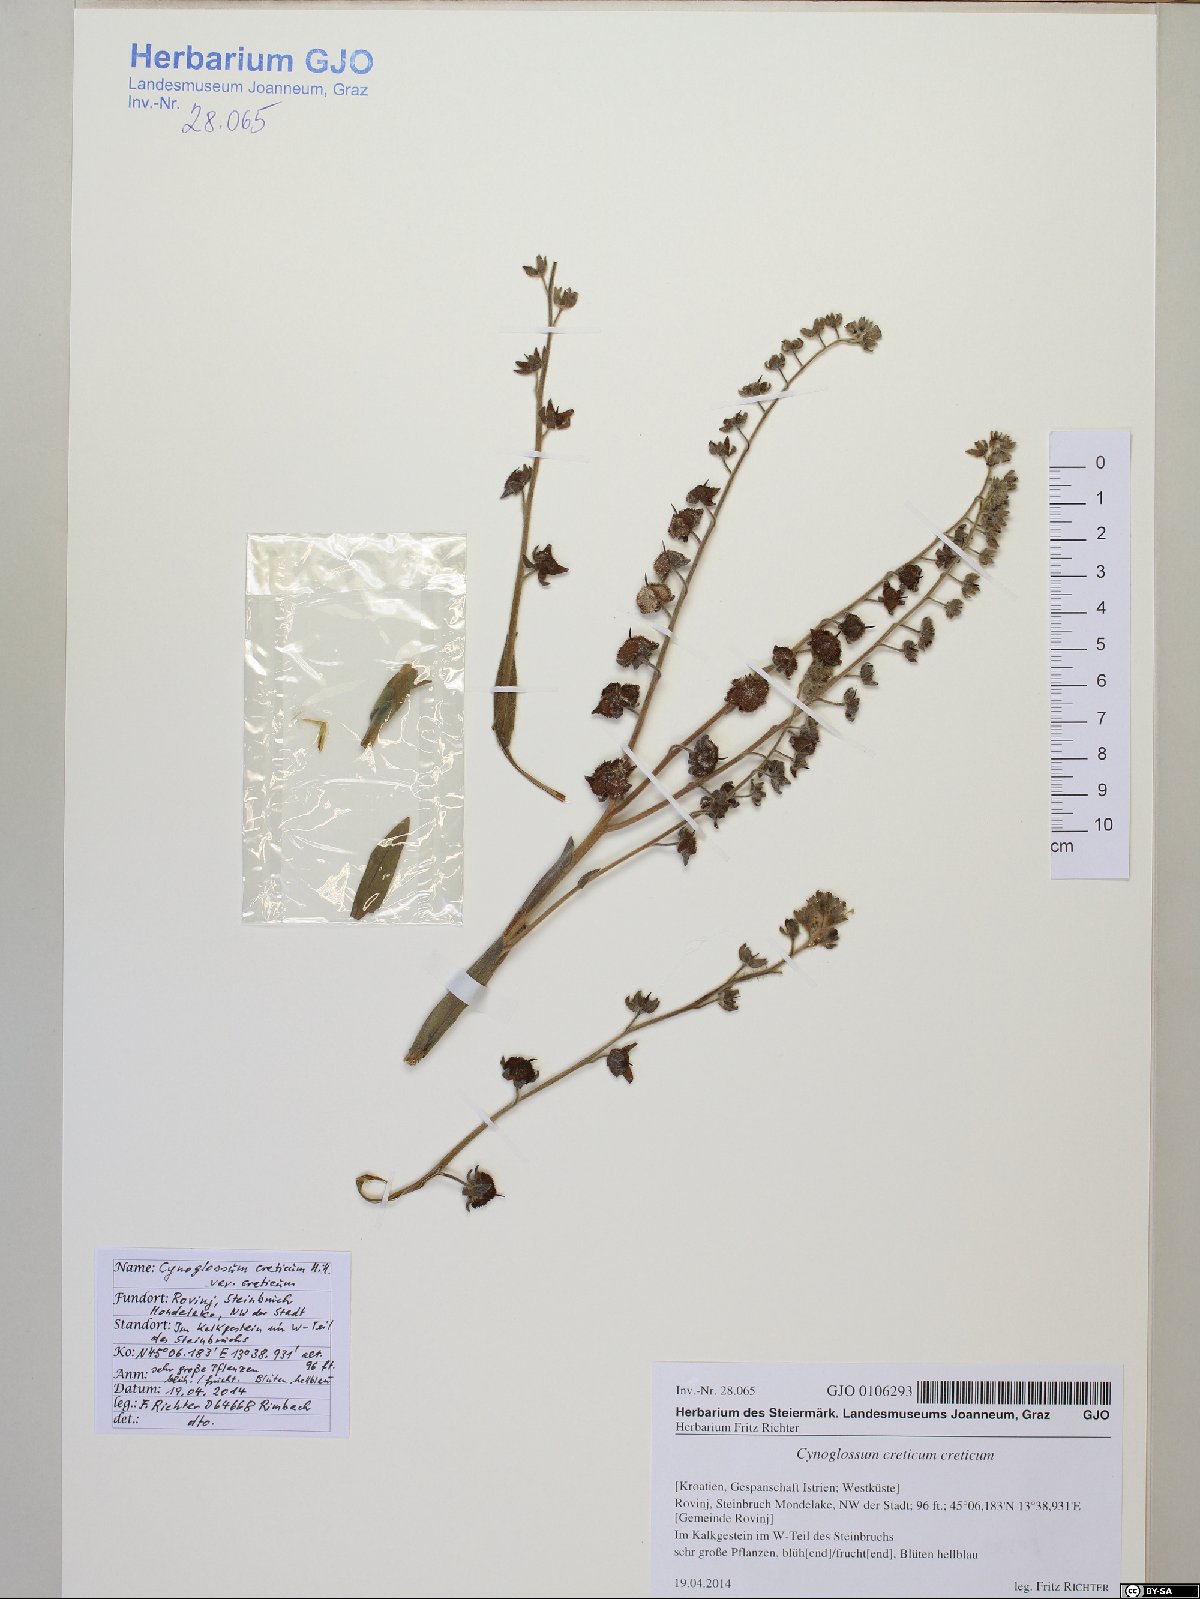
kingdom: Plantae
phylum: Tracheophyta
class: Magnoliopsida
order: Boraginales
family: Boraginaceae
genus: Rindera
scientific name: Rindera columnae
